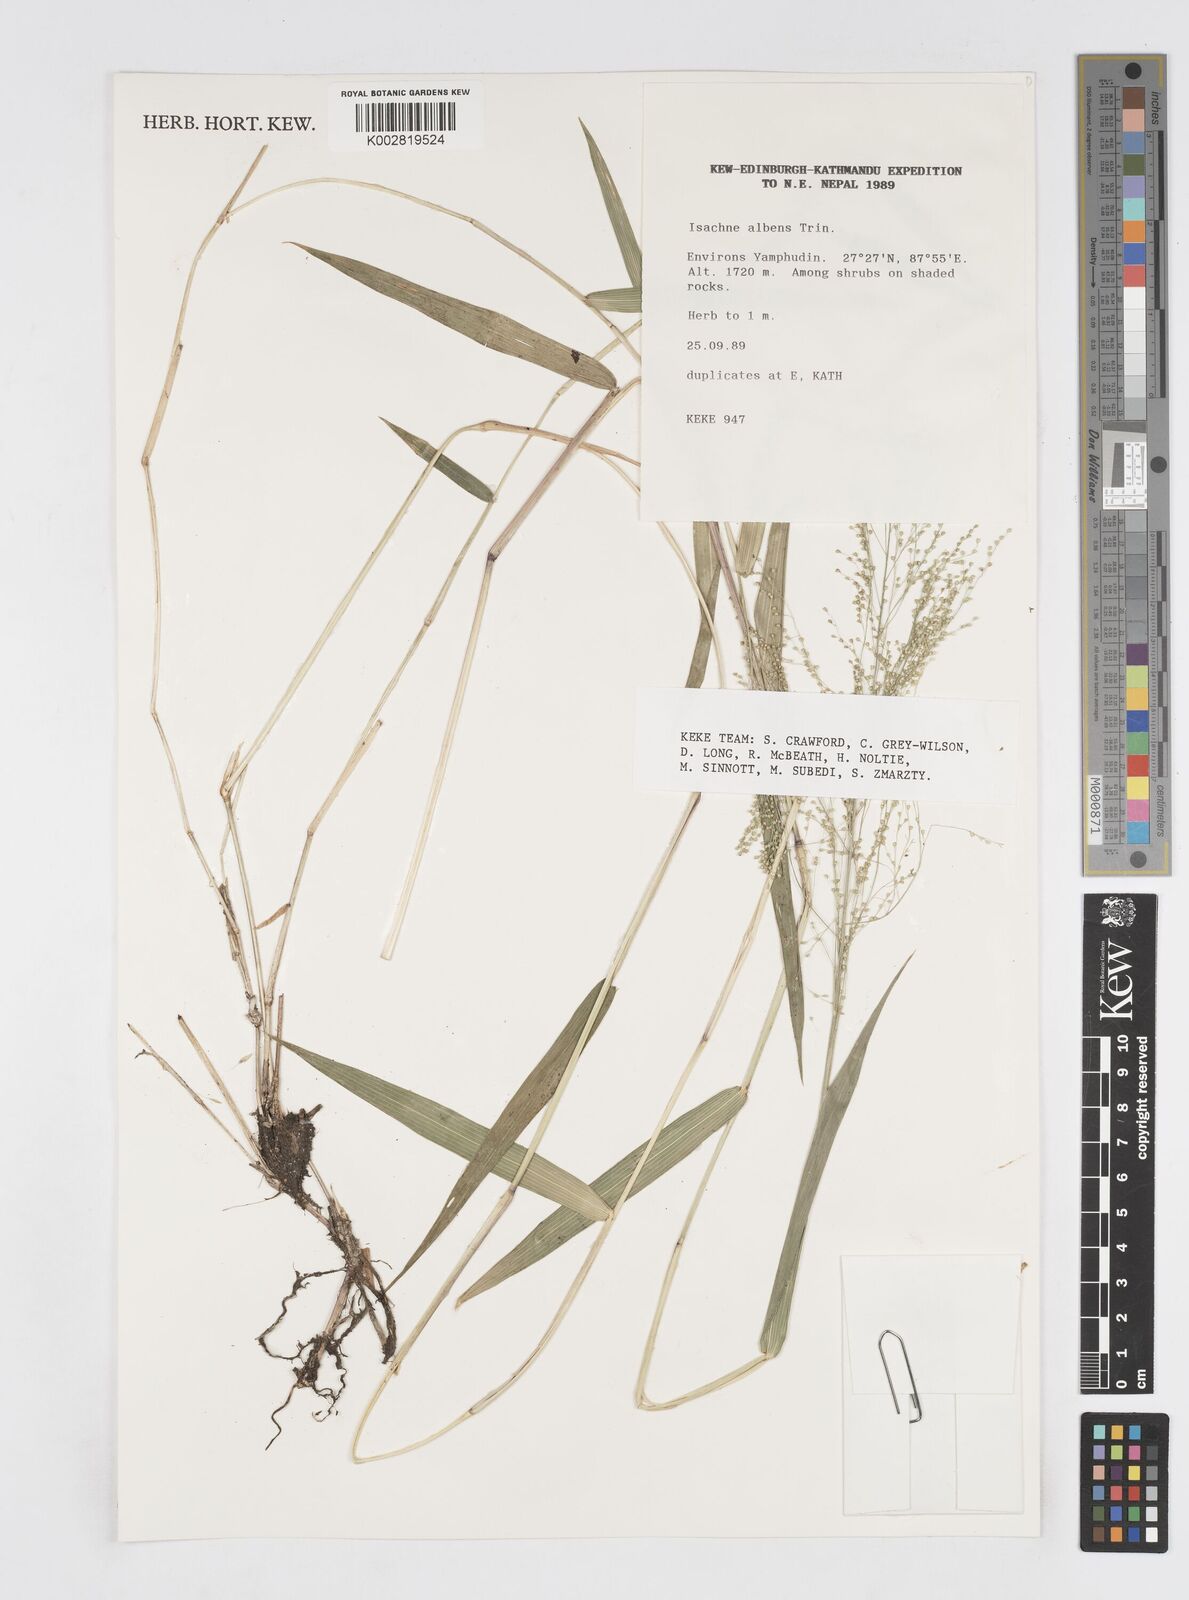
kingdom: Plantae
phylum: Tracheophyta
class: Liliopsida
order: Poales
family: Poaceae
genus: Isachne
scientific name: Isachne albens
